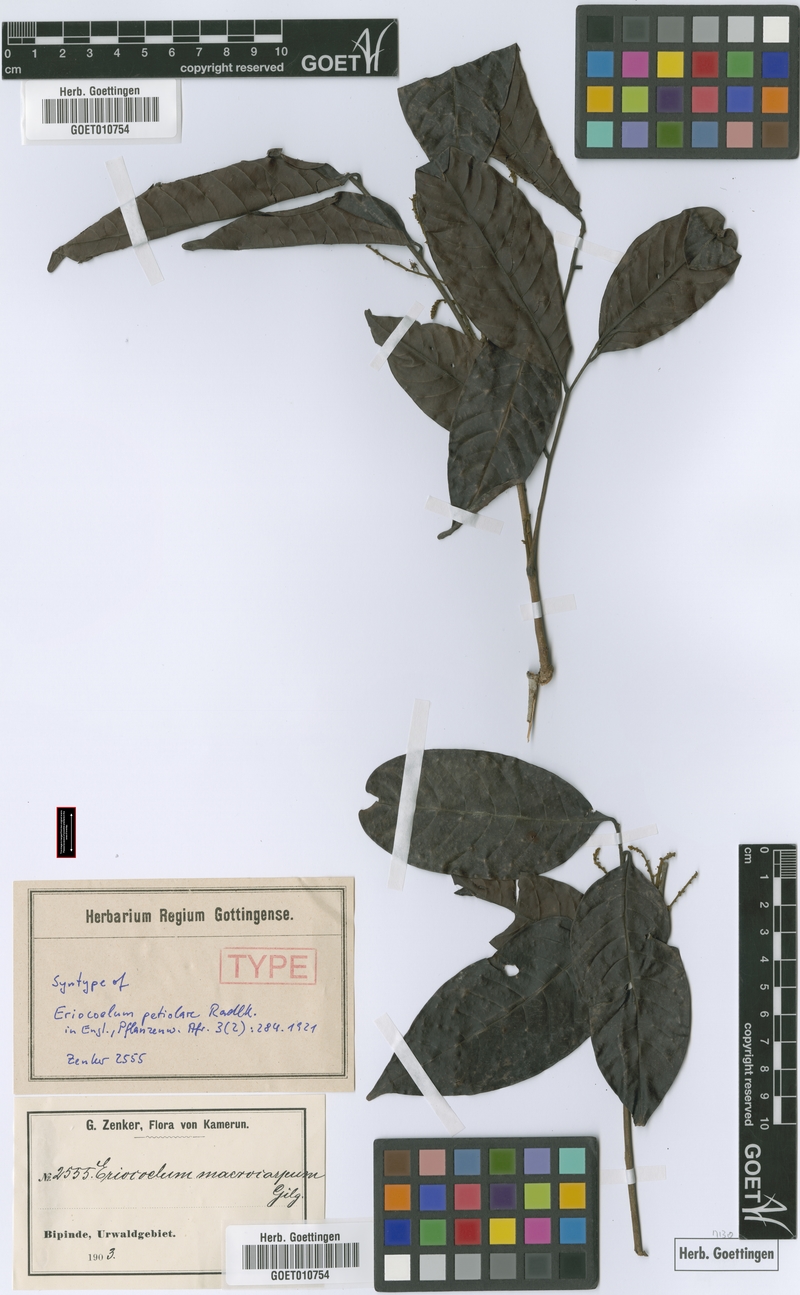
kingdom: Plantae
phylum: Tracheophyta
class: Magnoliopsida
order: Sapindales
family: Sapindaceae
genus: Eriocoelum
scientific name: Eriocoelum petiolare
